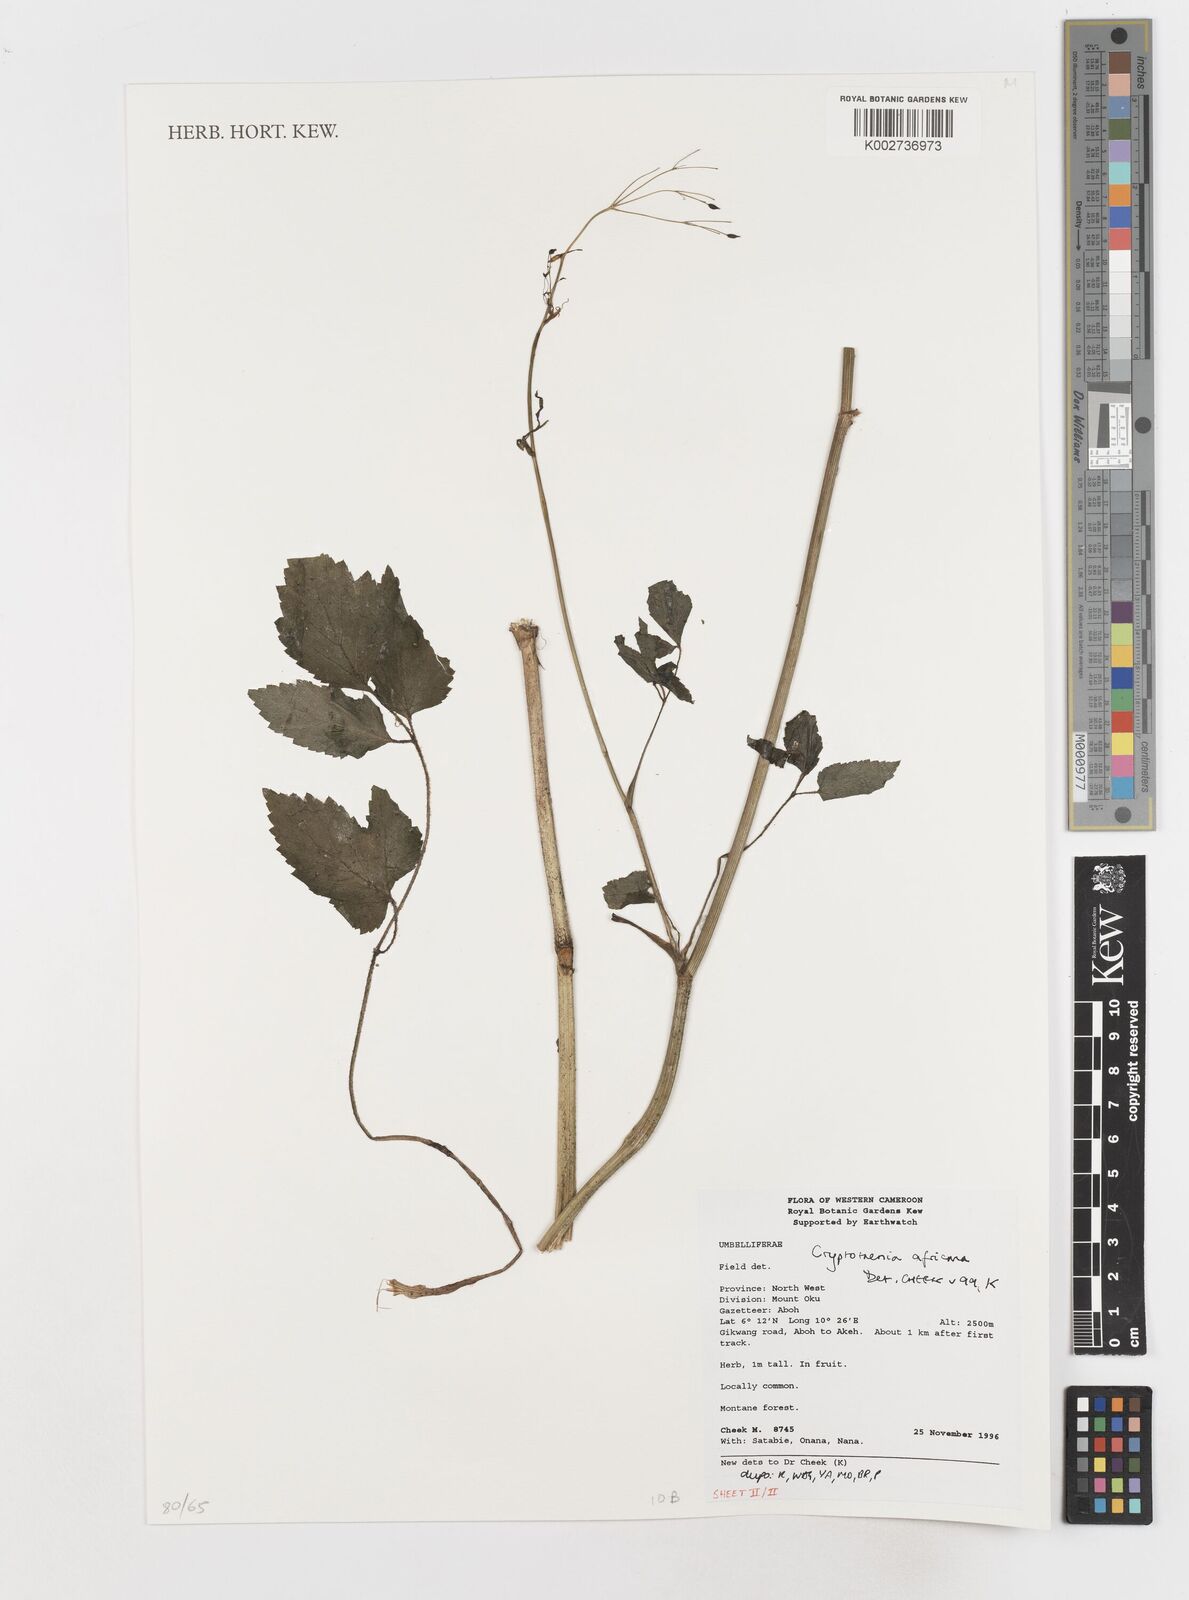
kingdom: Plantae
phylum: Tracheophyta
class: Magnoliopsida
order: Apiales
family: Apiaceae
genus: Cryptotaenia
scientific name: Cryptotaenia africana
